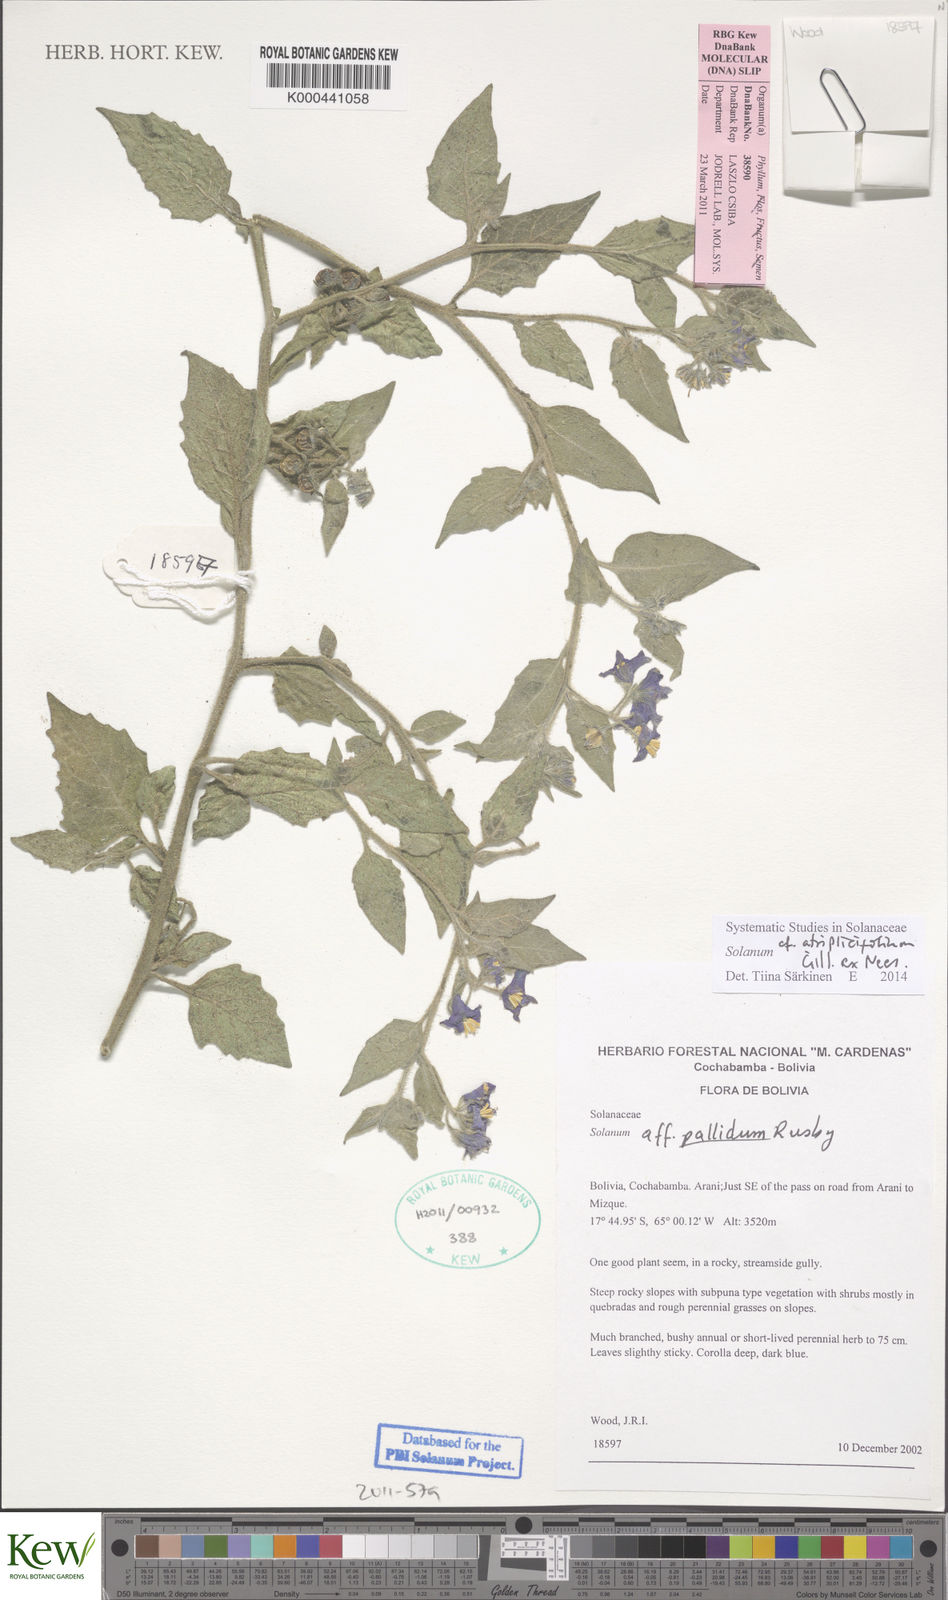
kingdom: Plantae
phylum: Tracheophyta
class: Magnoliopsida
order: Solanales
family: Solanaceae
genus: Solanum
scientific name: Solanum tweedianum
